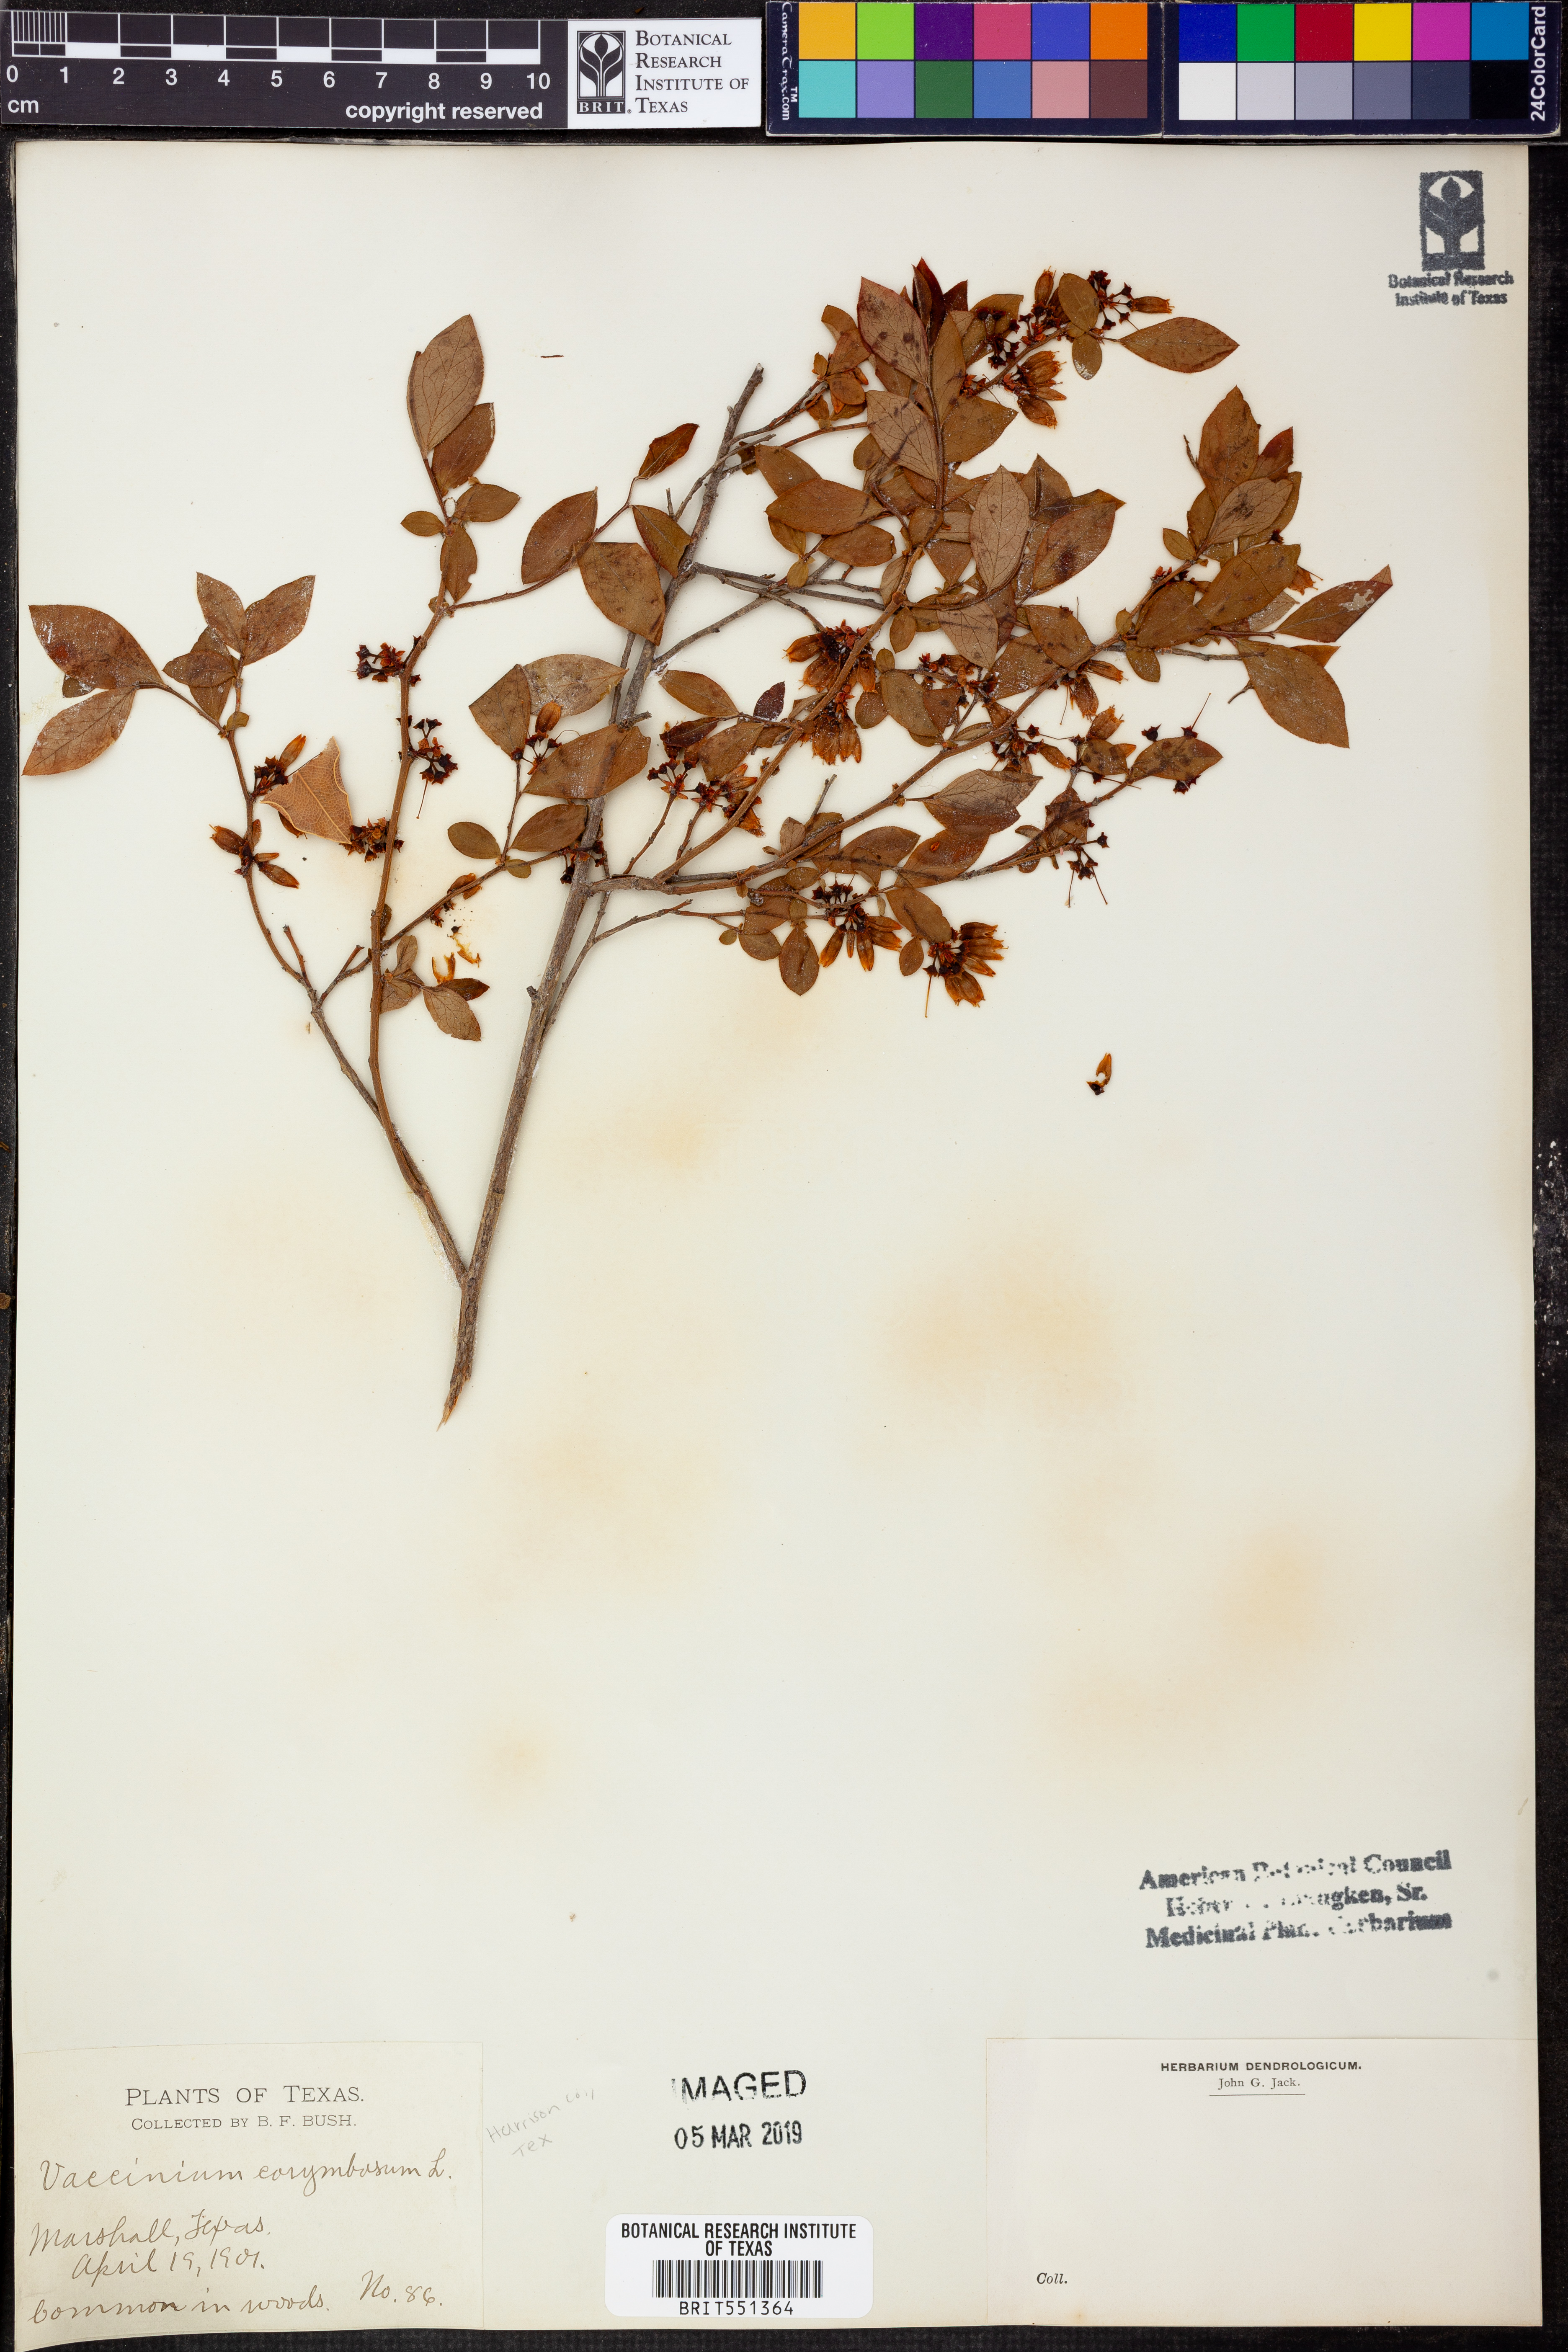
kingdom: Plantae
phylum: Tracheophyta
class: Magnoliopsida
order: Ericales
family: Ericaceae
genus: Vaccinium
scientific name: Vaccinium corymbosum
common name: Blueberry
